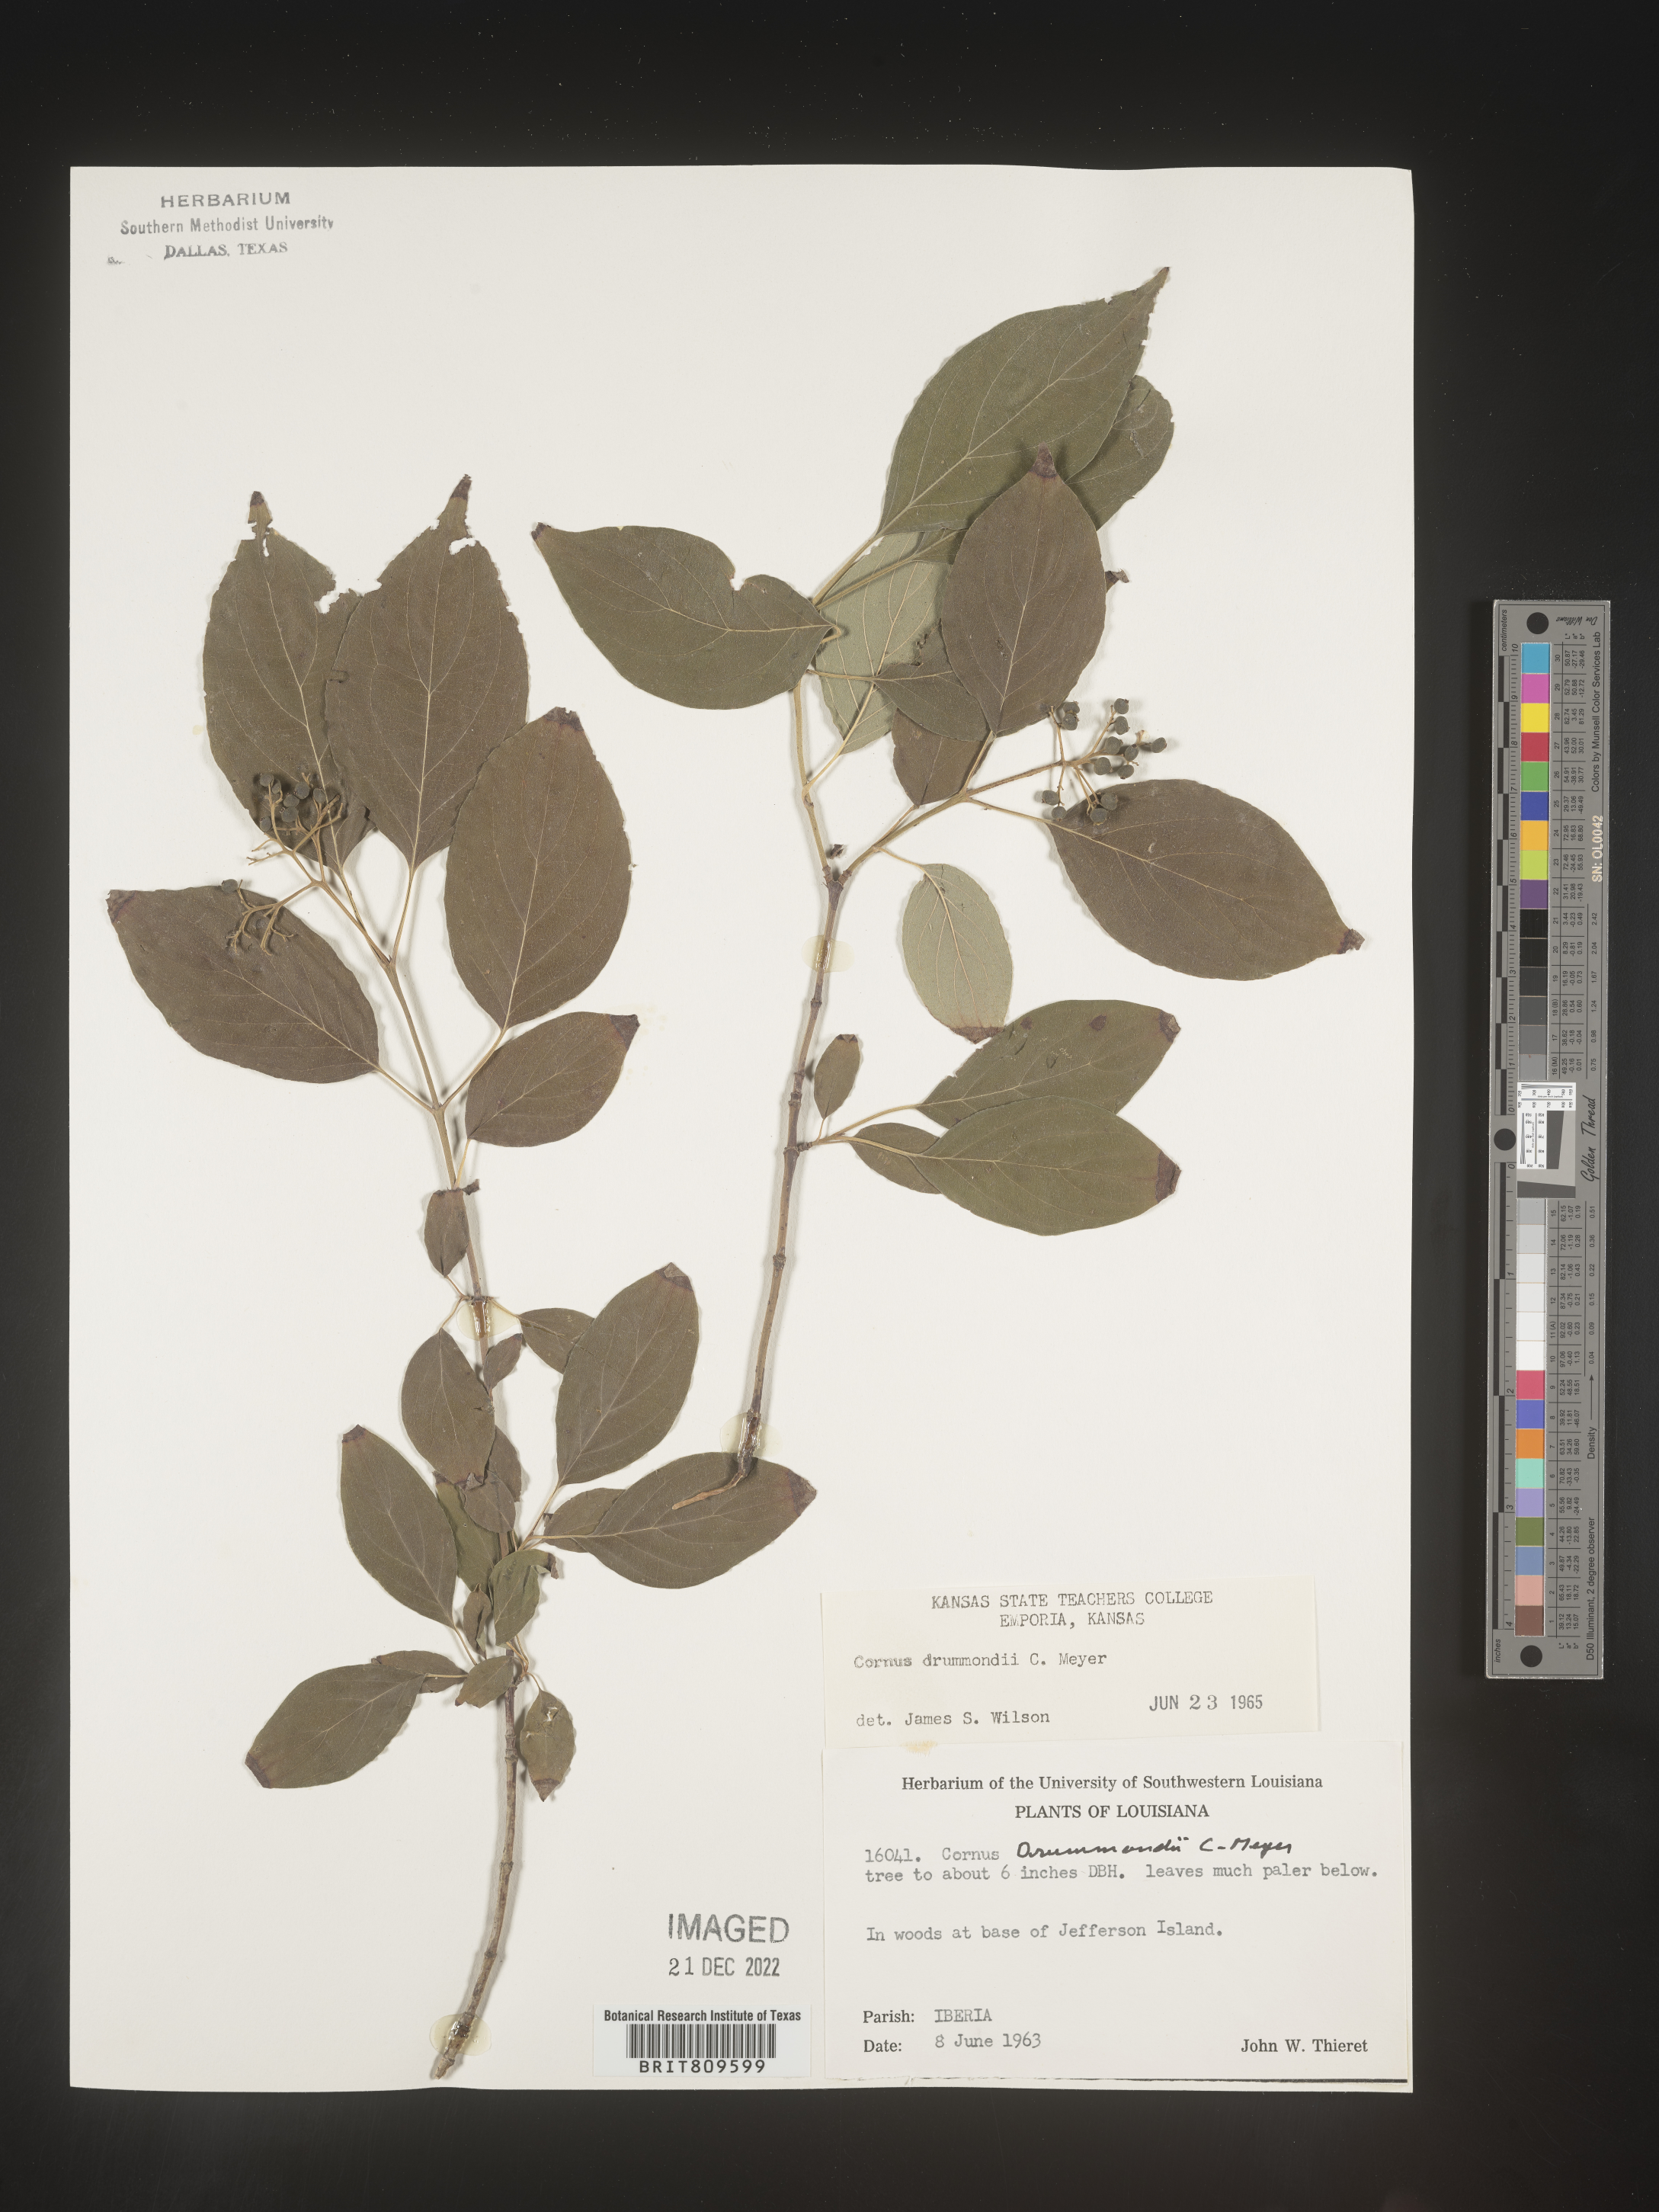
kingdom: Plantae
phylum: Tracheophyta
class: Magnoliopsida
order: Cornales
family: Cornaceae
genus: Cornus
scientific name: Cornus drummondii
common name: Rough-leaf dogwood
